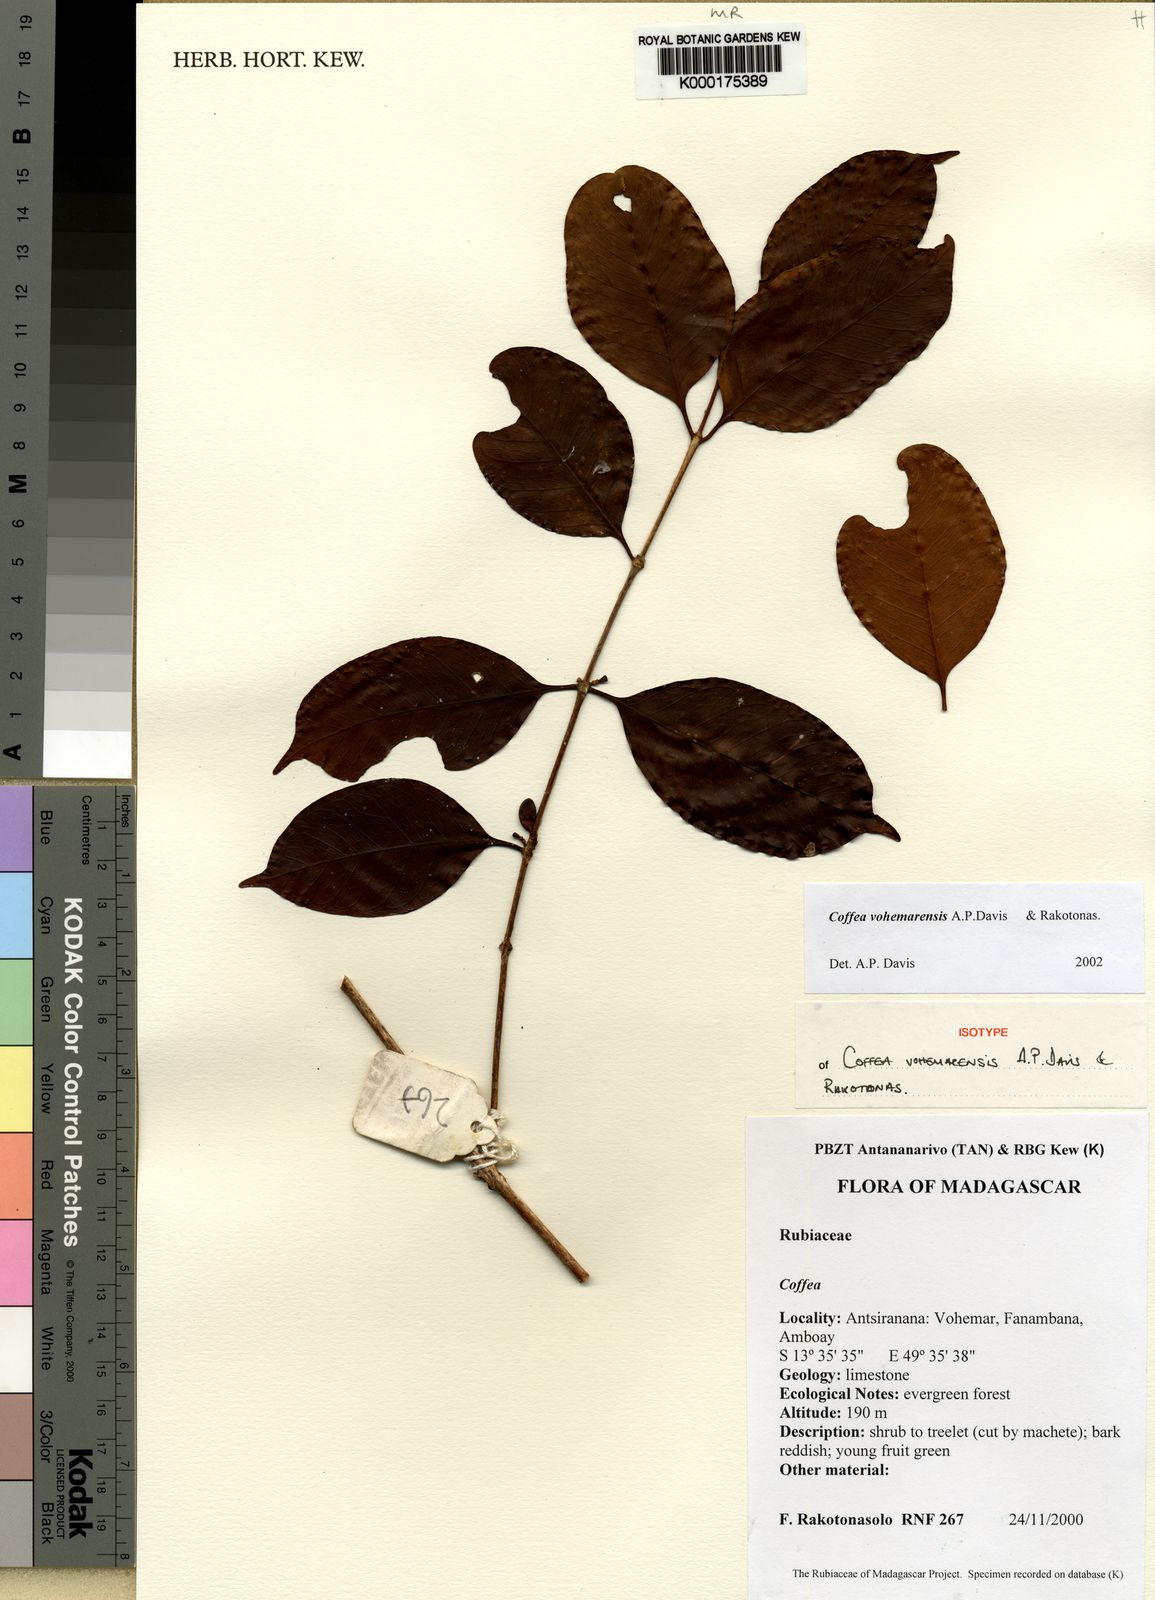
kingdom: Plantae
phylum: Tracheophyta
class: Magnoliopsida
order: Gentianales
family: Rubiaceae
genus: Coffea
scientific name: Coffea vohemarensis
